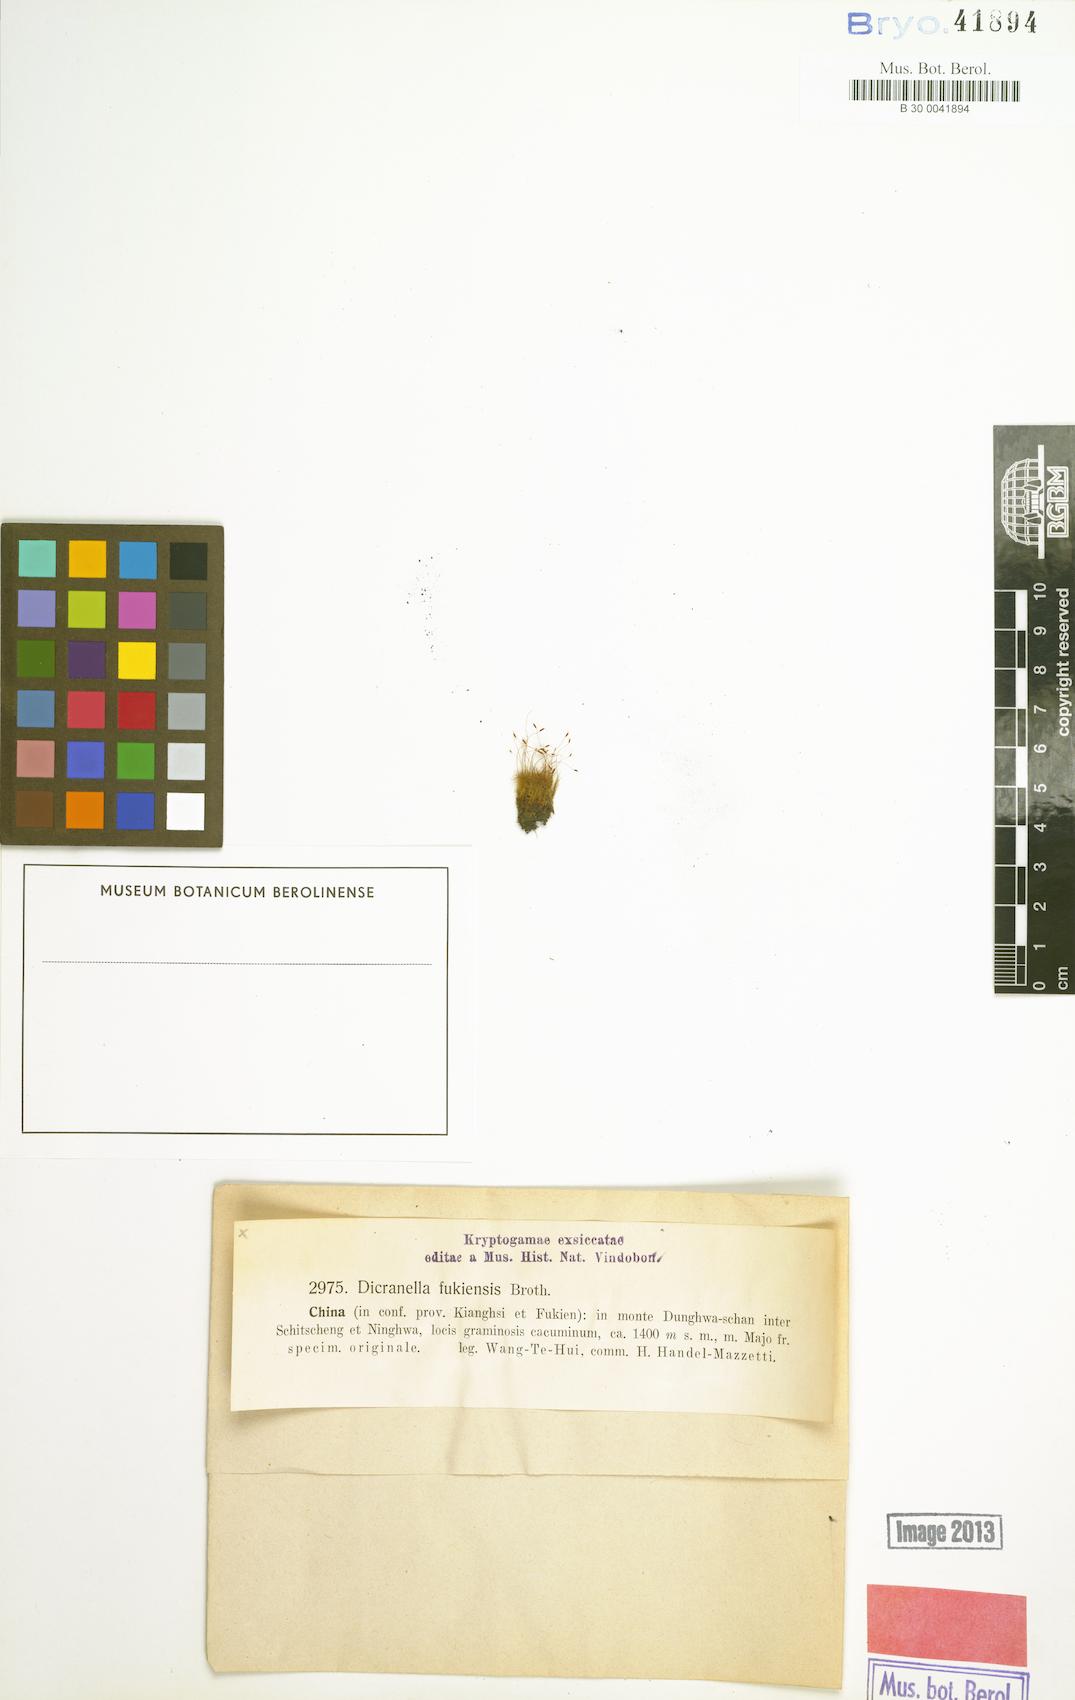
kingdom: Plantae
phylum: Bryophyta
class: Bryopsida
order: Dicranales
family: Dicranellaceae
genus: Dicranella
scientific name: Dicranella fukienensis
